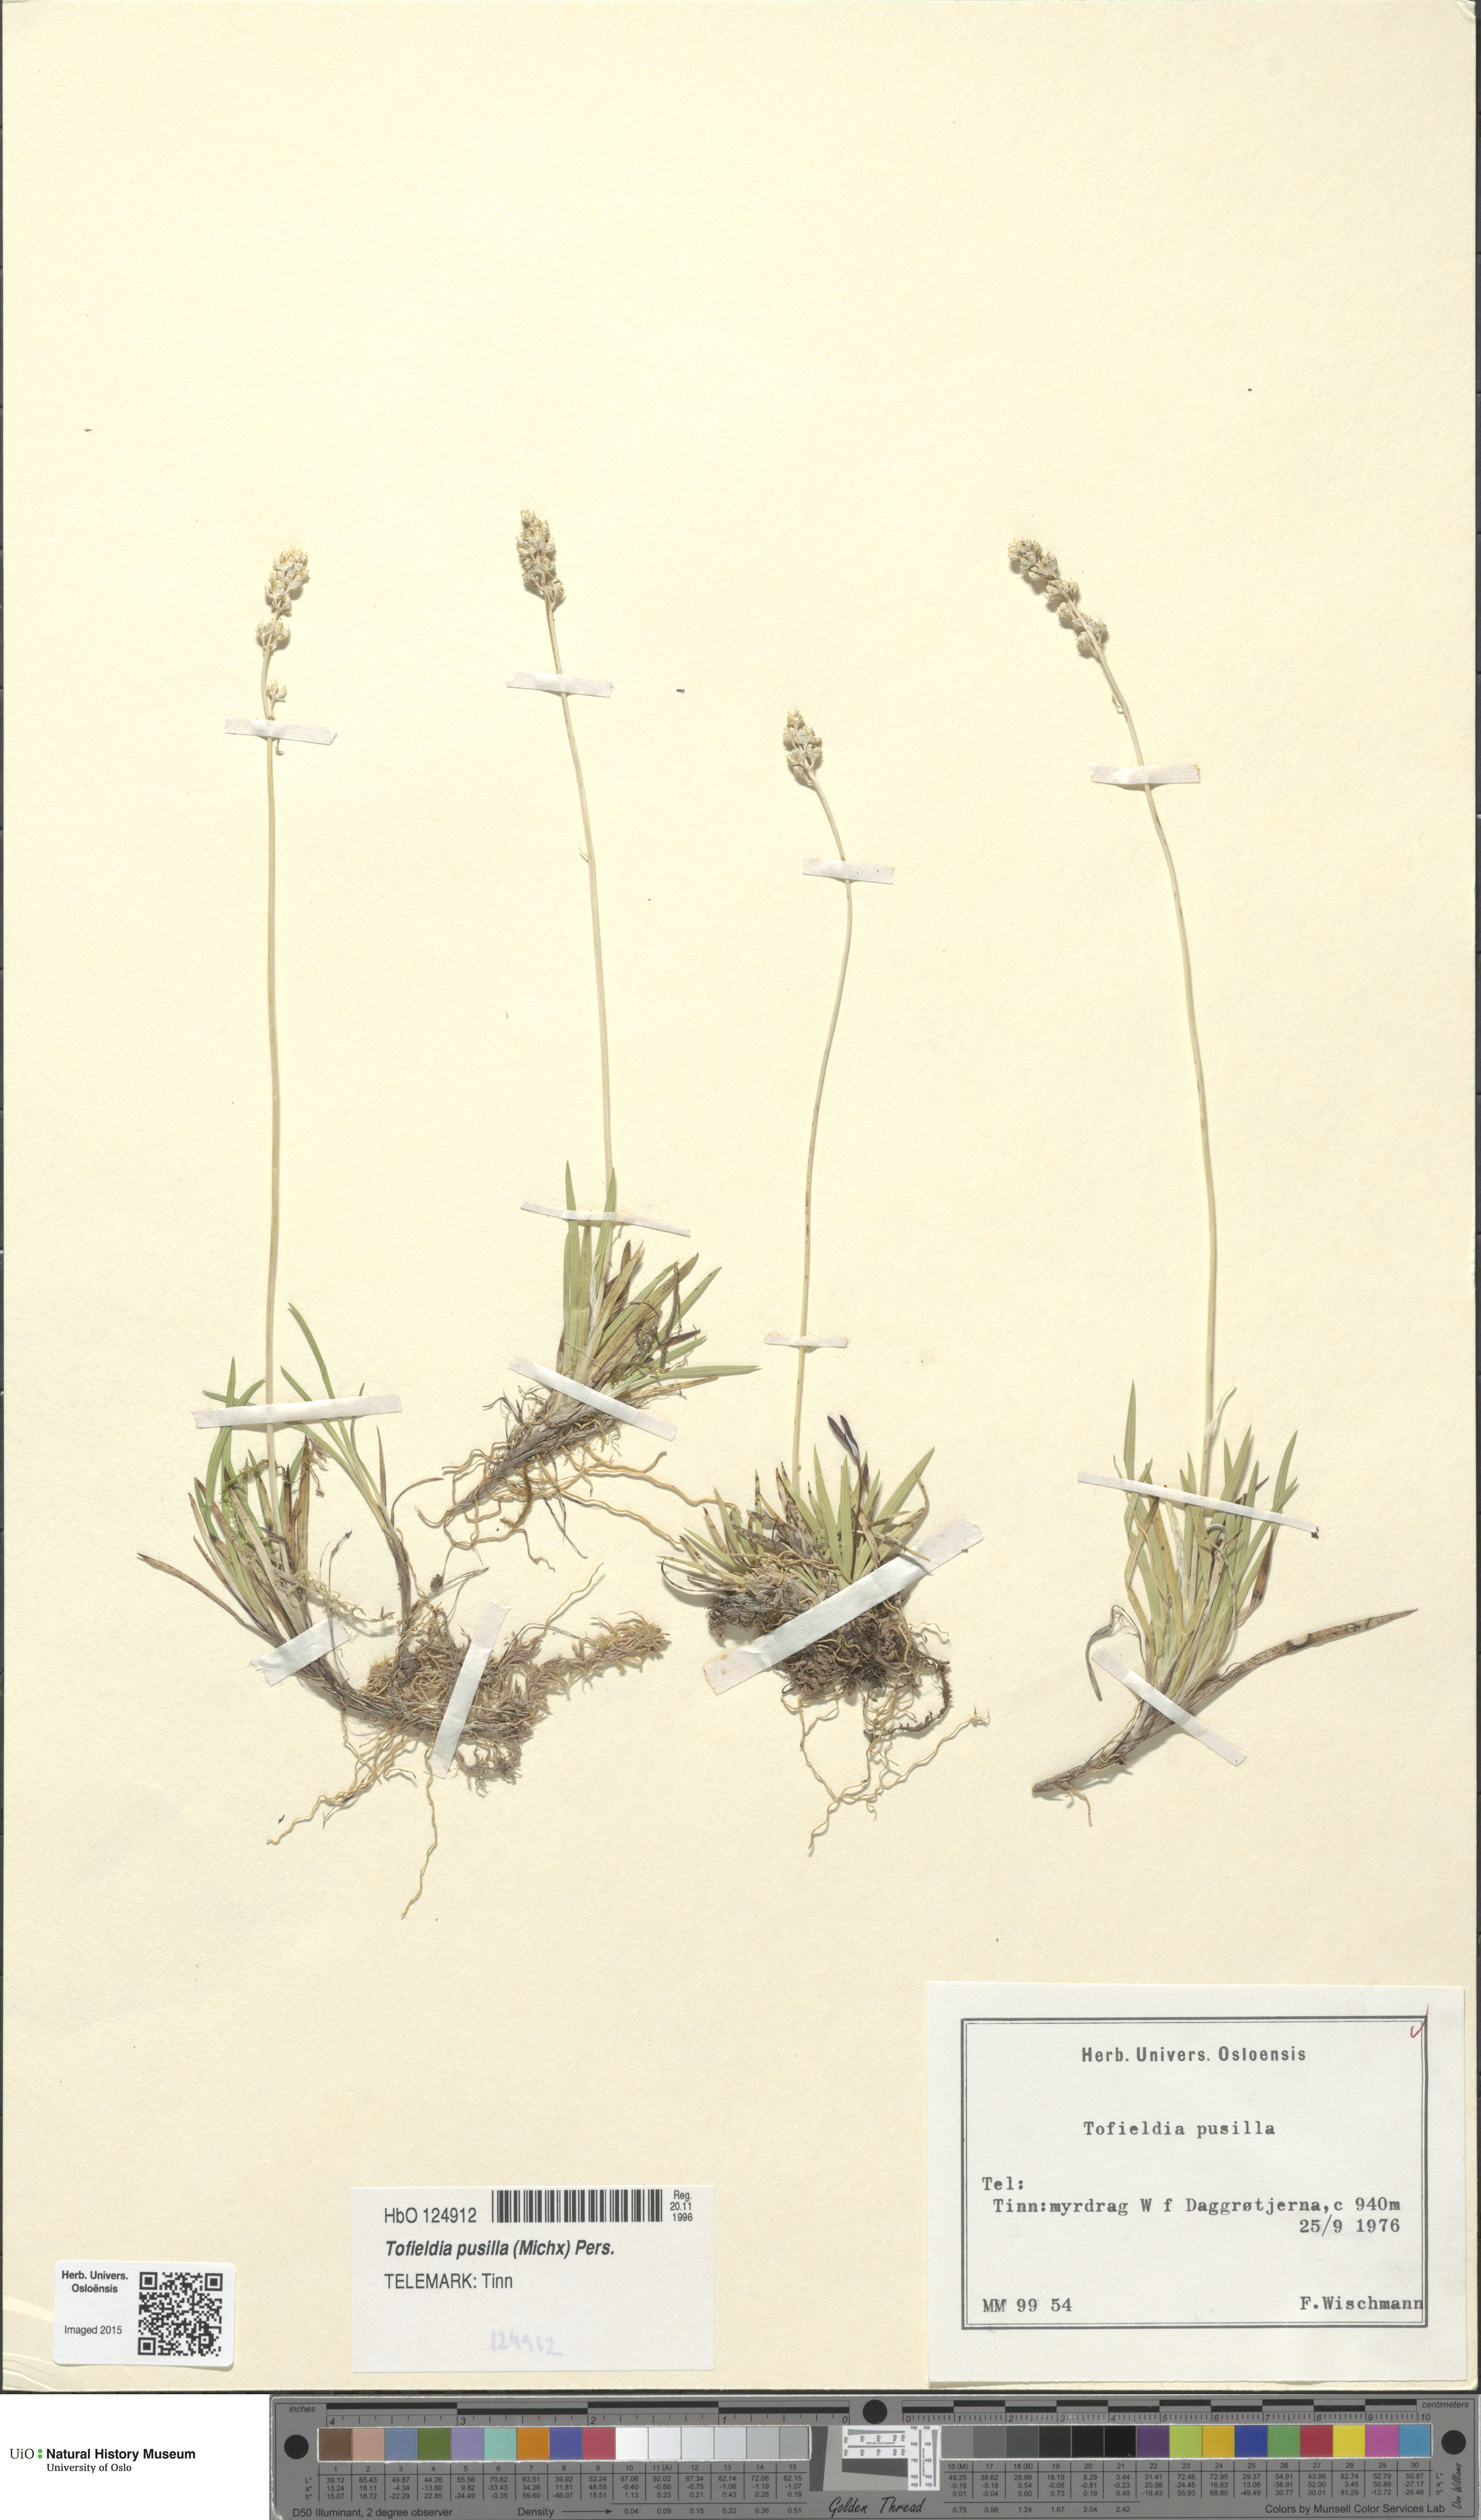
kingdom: Plantae
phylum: Tracheophyta
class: Liliopsida
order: Alismatales
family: Tofieldiaceae
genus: Tofieldia
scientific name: Tofieldia pusilla
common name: Scottish false asphodel
